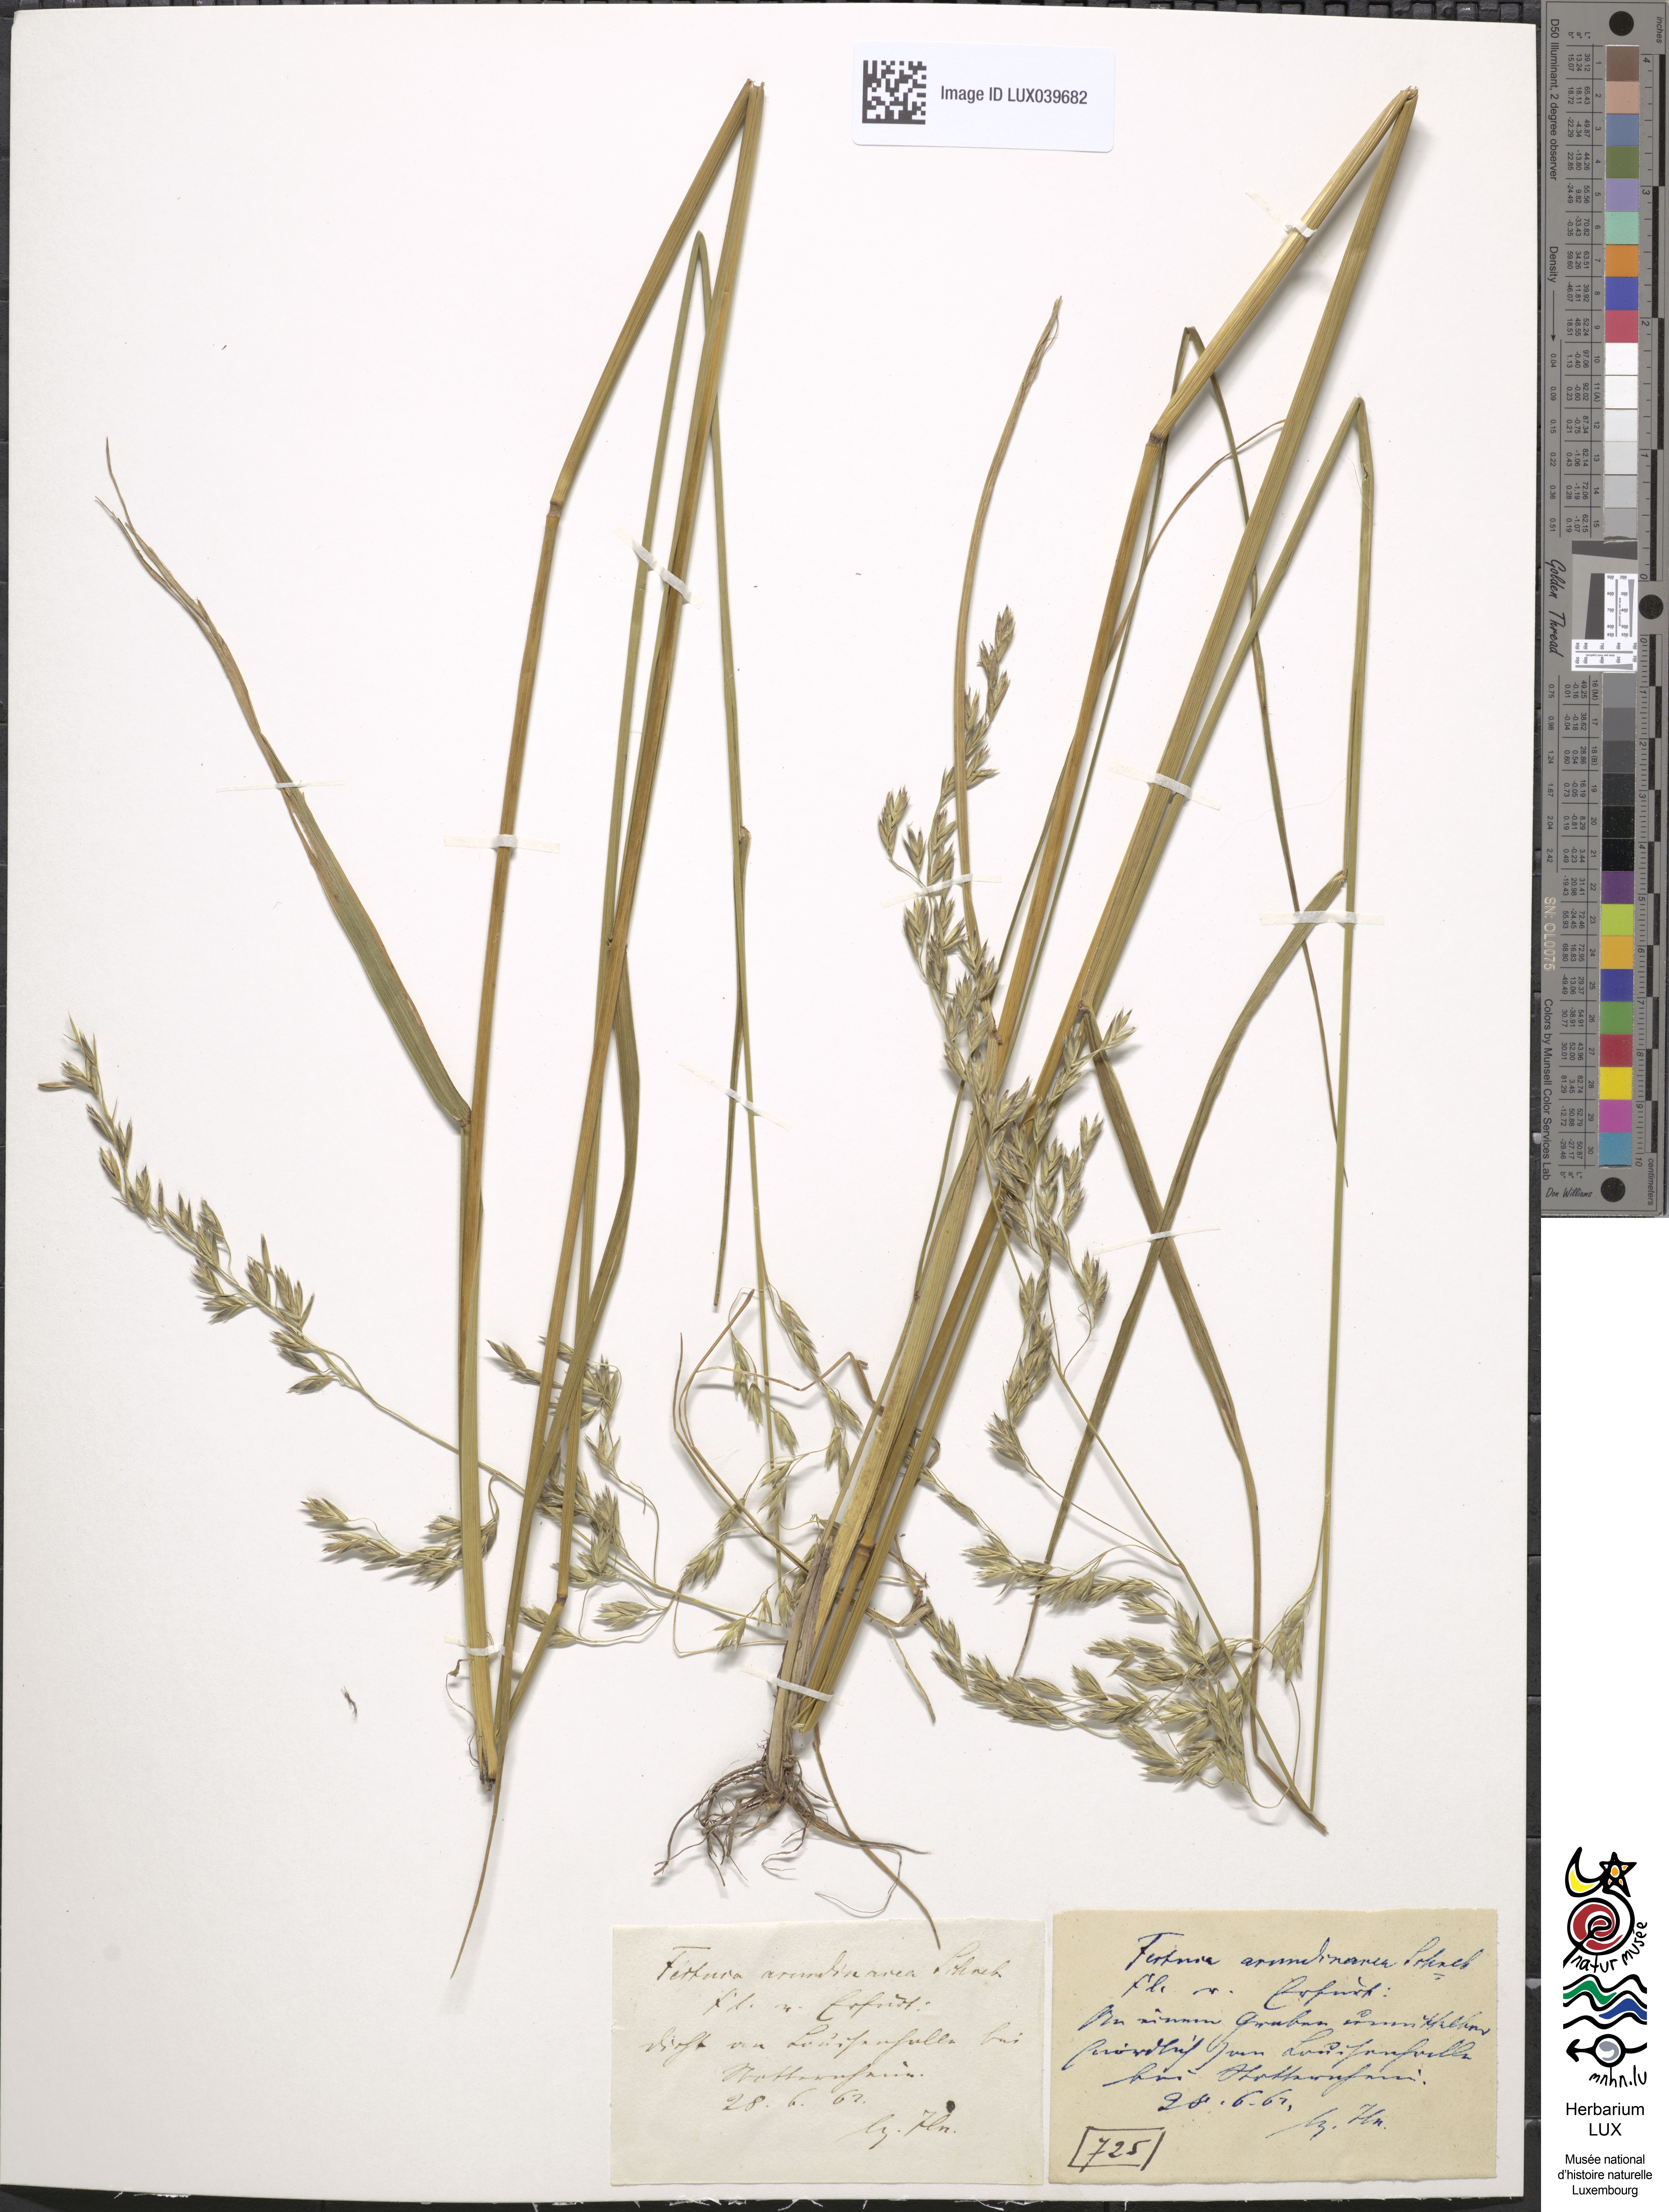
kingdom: Plantae
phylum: Tracheophyta
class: Liliopsida
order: Poales
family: Poaceae
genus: Lolium
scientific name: Lolium arundinaceum
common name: Reed fescue
